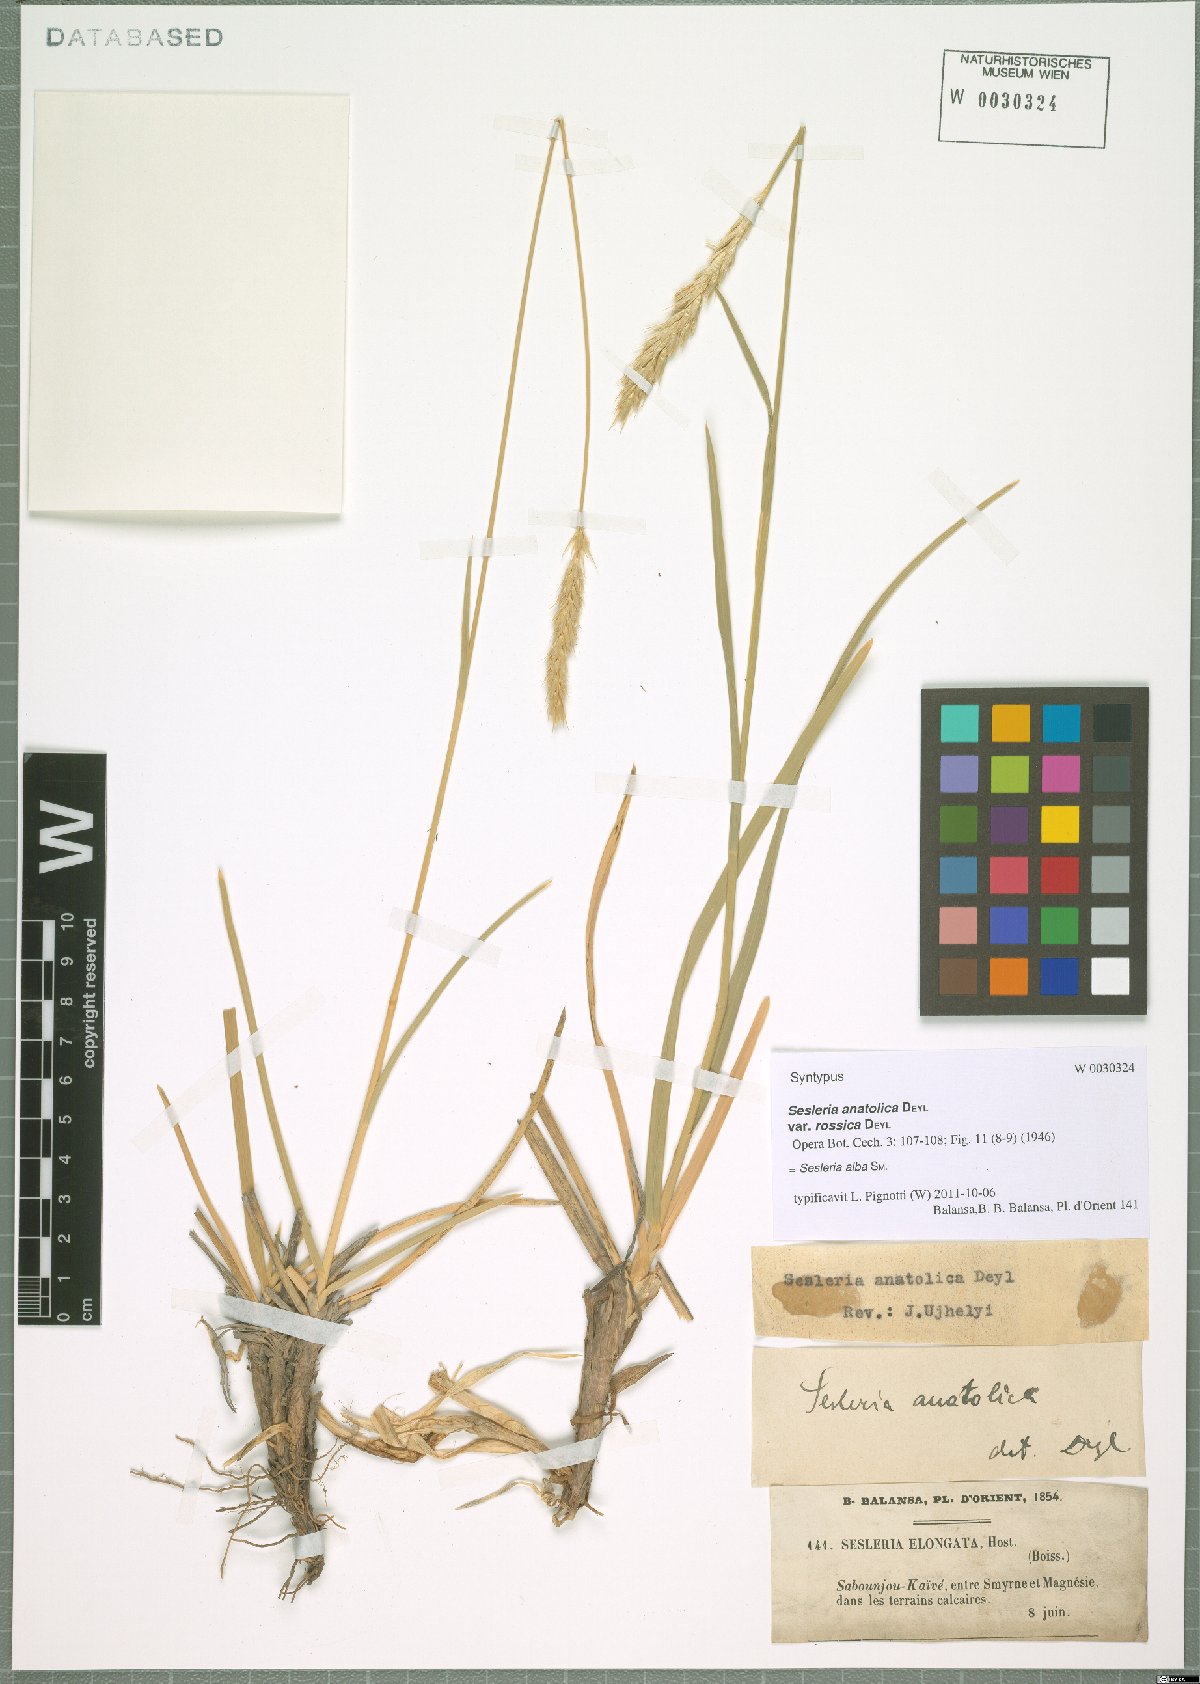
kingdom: Plantae
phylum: Tracheophyta
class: Liliopsida
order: Poales
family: Poaceae
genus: Sesleria
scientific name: Sesleria alba
